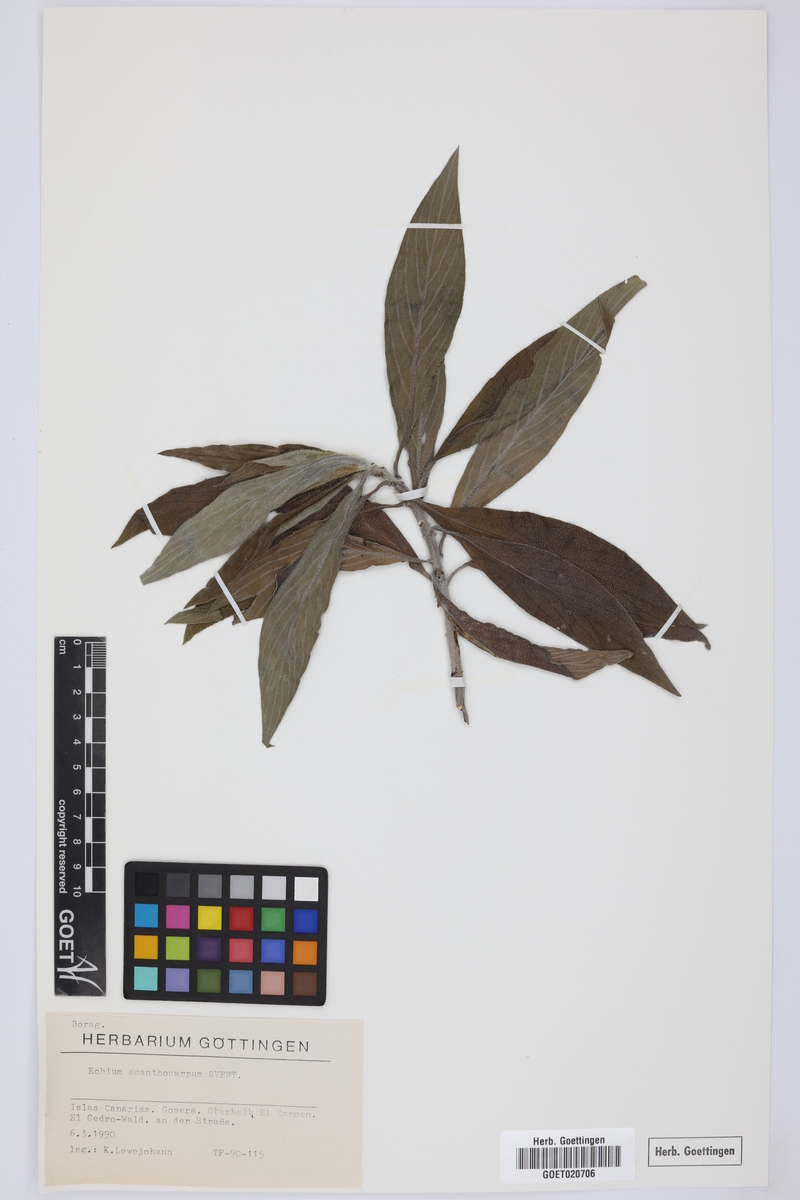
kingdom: Plantae
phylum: Tracheophyta
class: Magnoliopsida
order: Boraginales
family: Boraginaceae
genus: Echium
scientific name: Echium acanthocarpum
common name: Blue bugloss
